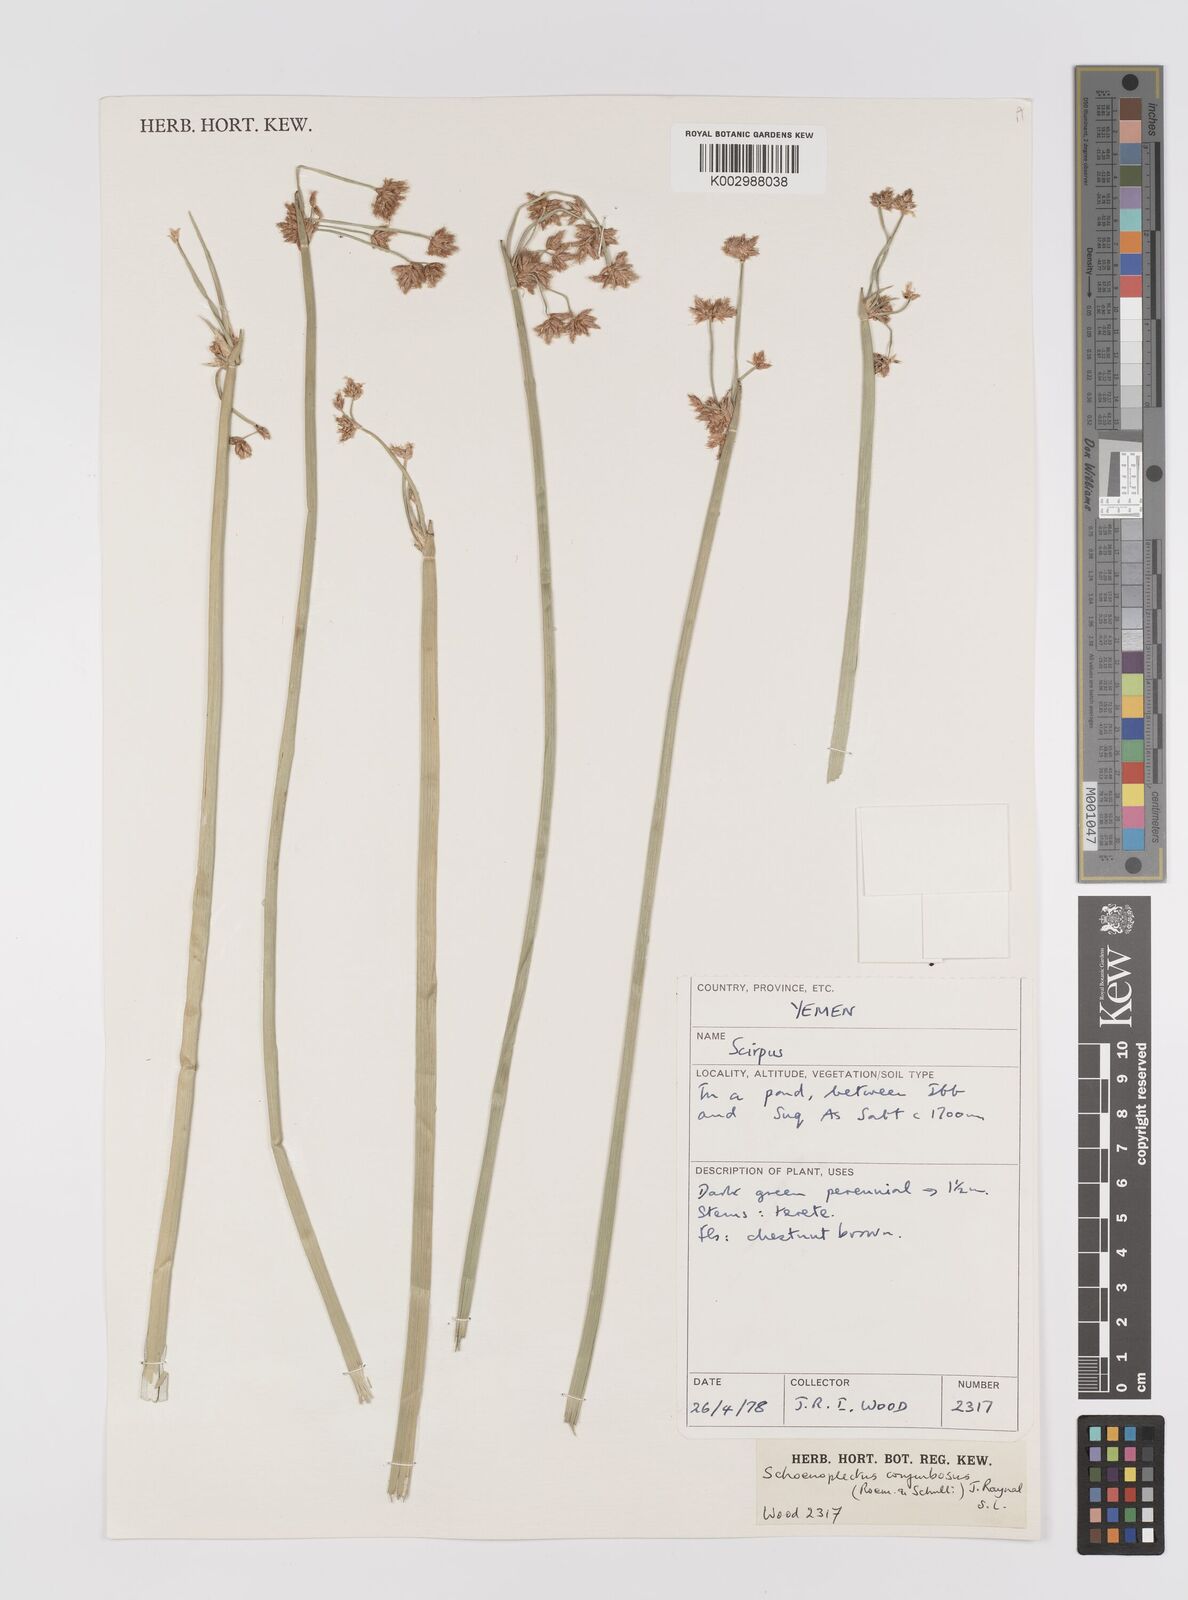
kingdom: Plantae
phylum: Tracheophyta
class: Liliopsida
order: Poales
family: Cyperaceae
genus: Schoenoplectiella
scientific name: Schoenoplectiella corymbosa
